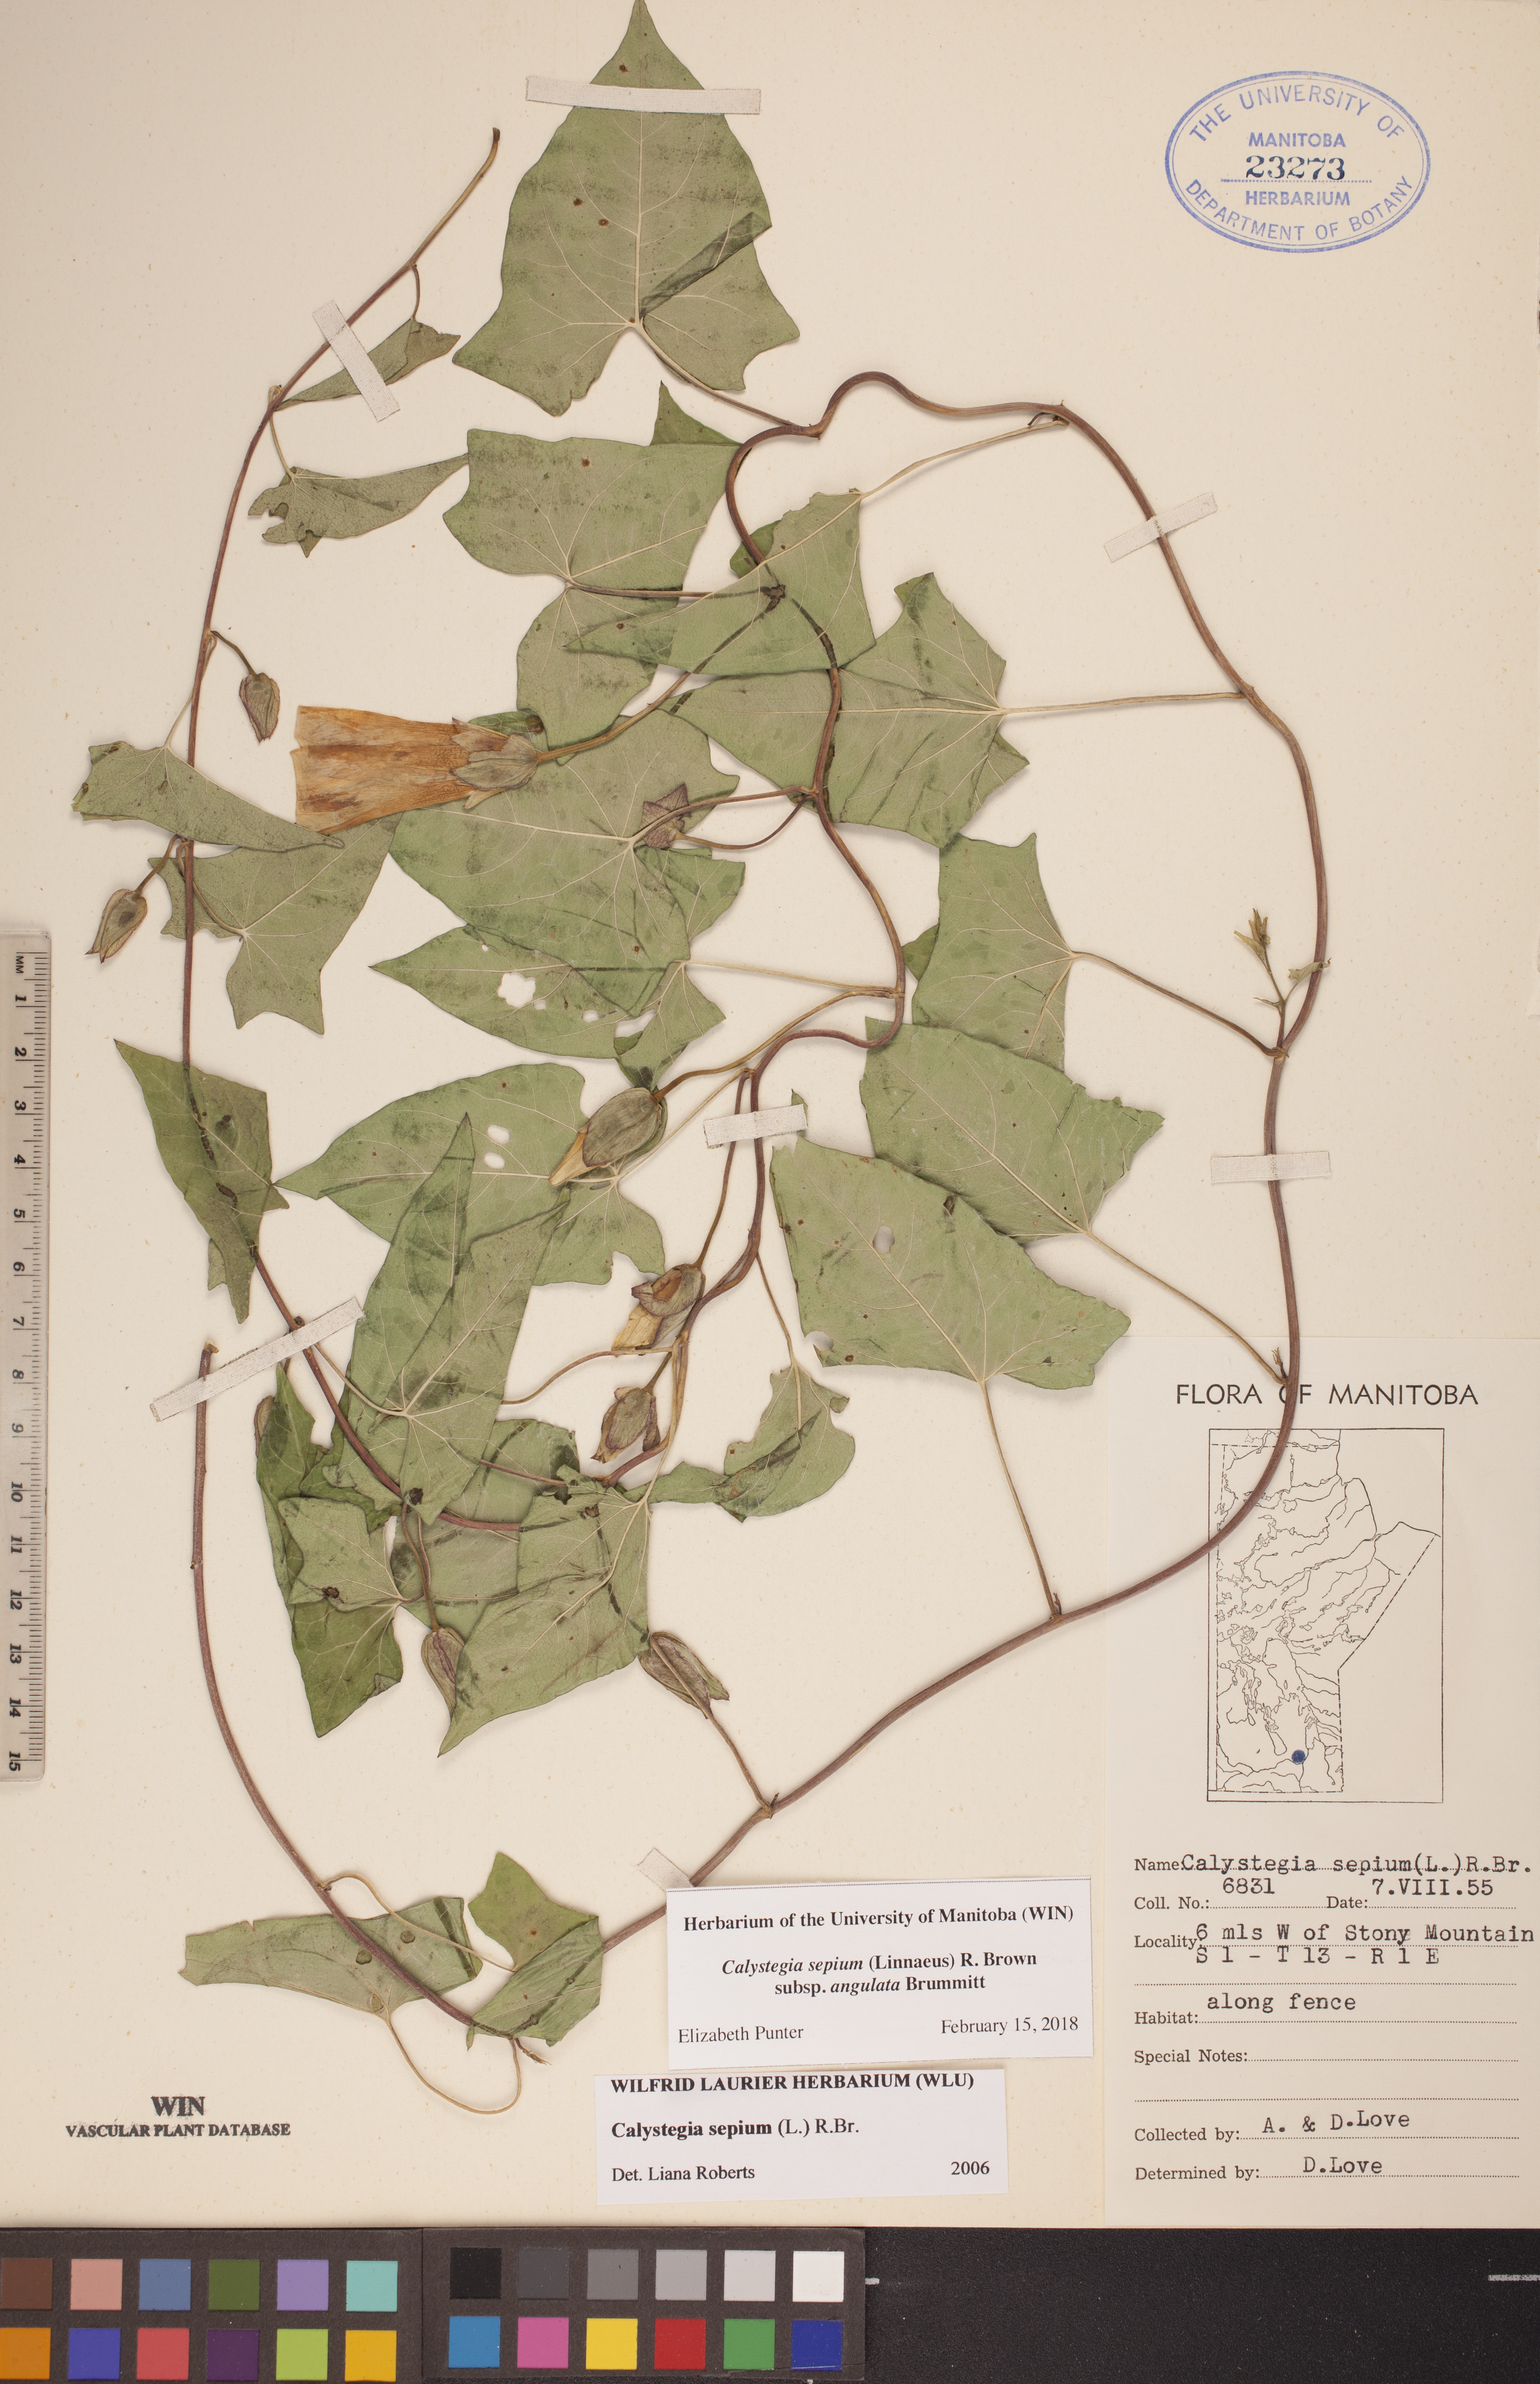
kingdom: Plantae
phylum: Tracheophyta
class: Magnoliopsida
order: Solanales
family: Convolvulaceae
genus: Calystegia
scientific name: Calystegia sepium
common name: Hedge bindweed
